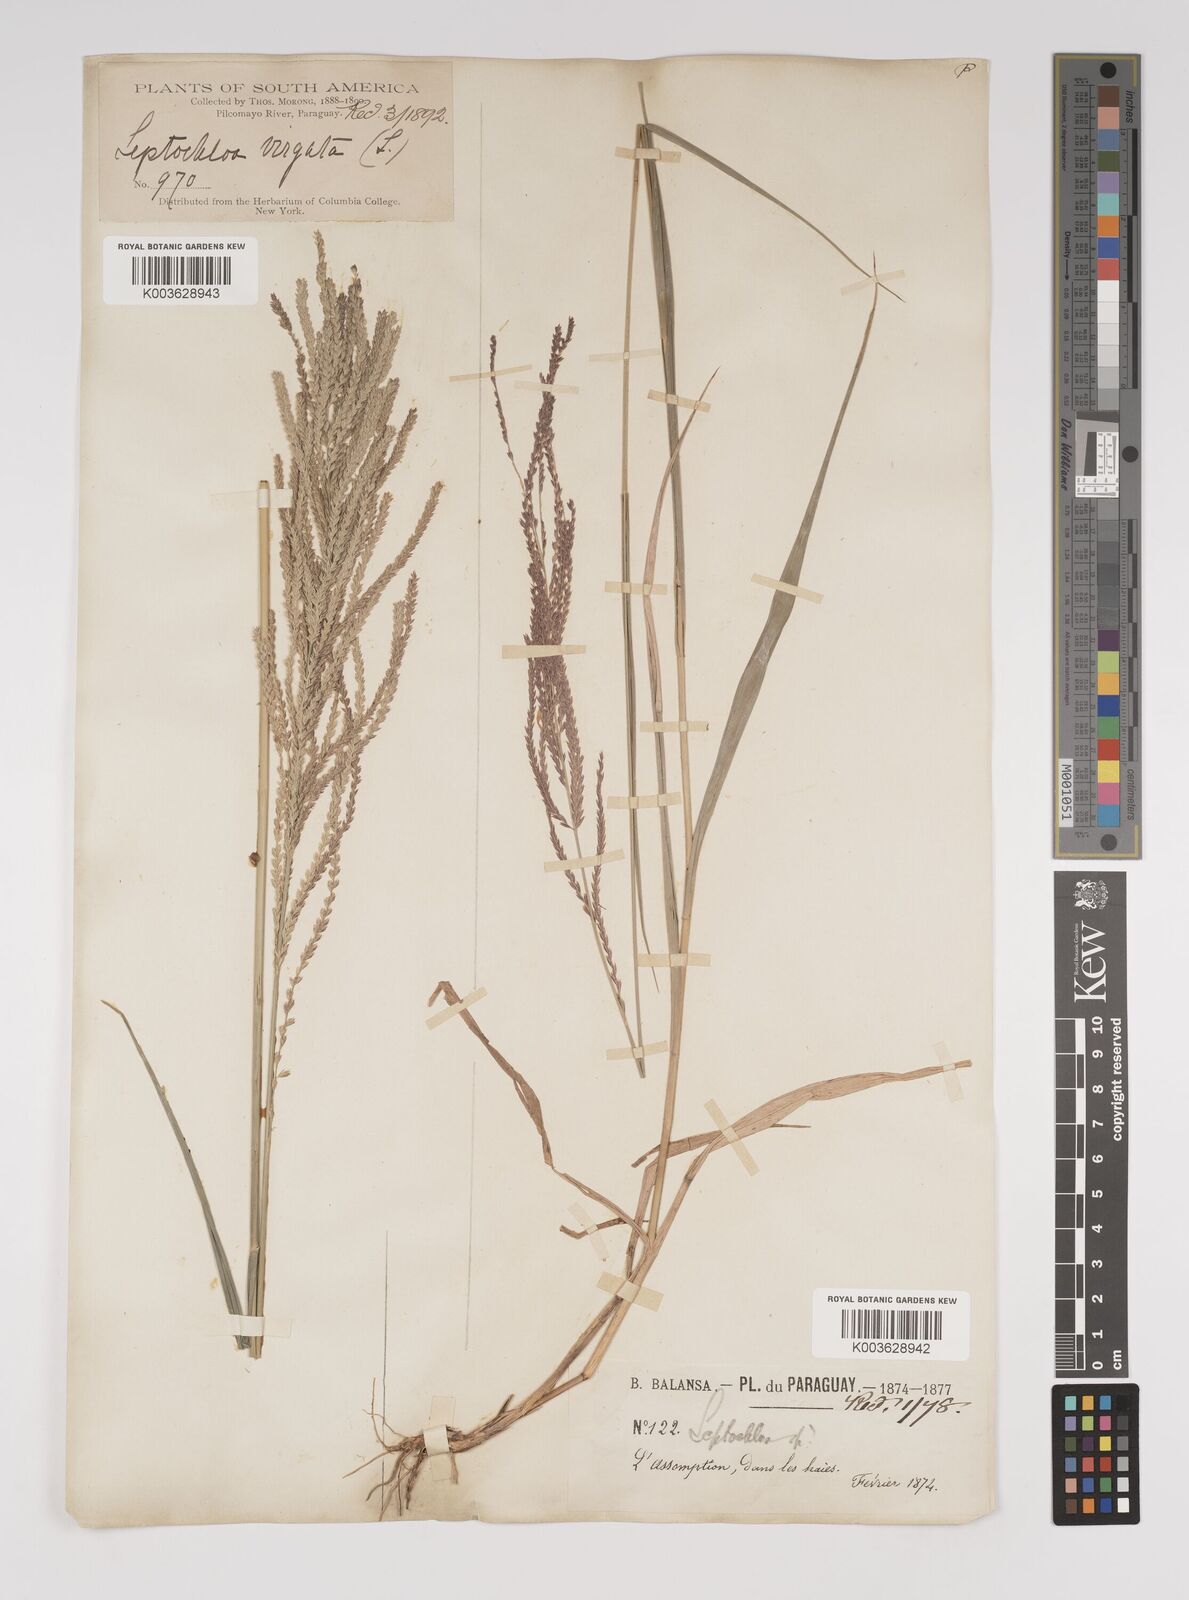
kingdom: Plantae
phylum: Tracheophyta
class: Liliopsida
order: Poales
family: Poaceae
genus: Leptochloa
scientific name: Leptochloa virgata
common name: Tropical sprangletop
